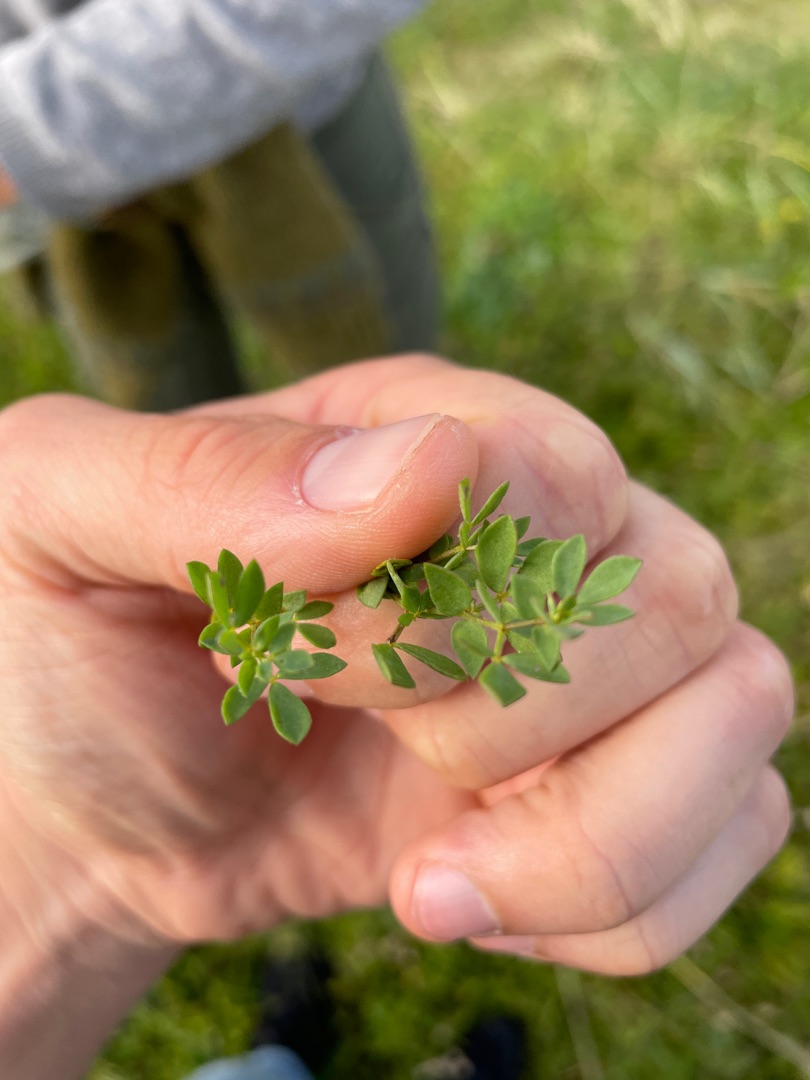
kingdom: Plantae
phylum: Tracheophyta
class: Magnoliopsida
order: Fabales
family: Fabaceae
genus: Lotus
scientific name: Lotus corniculatus
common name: Almindelig kællingetand
